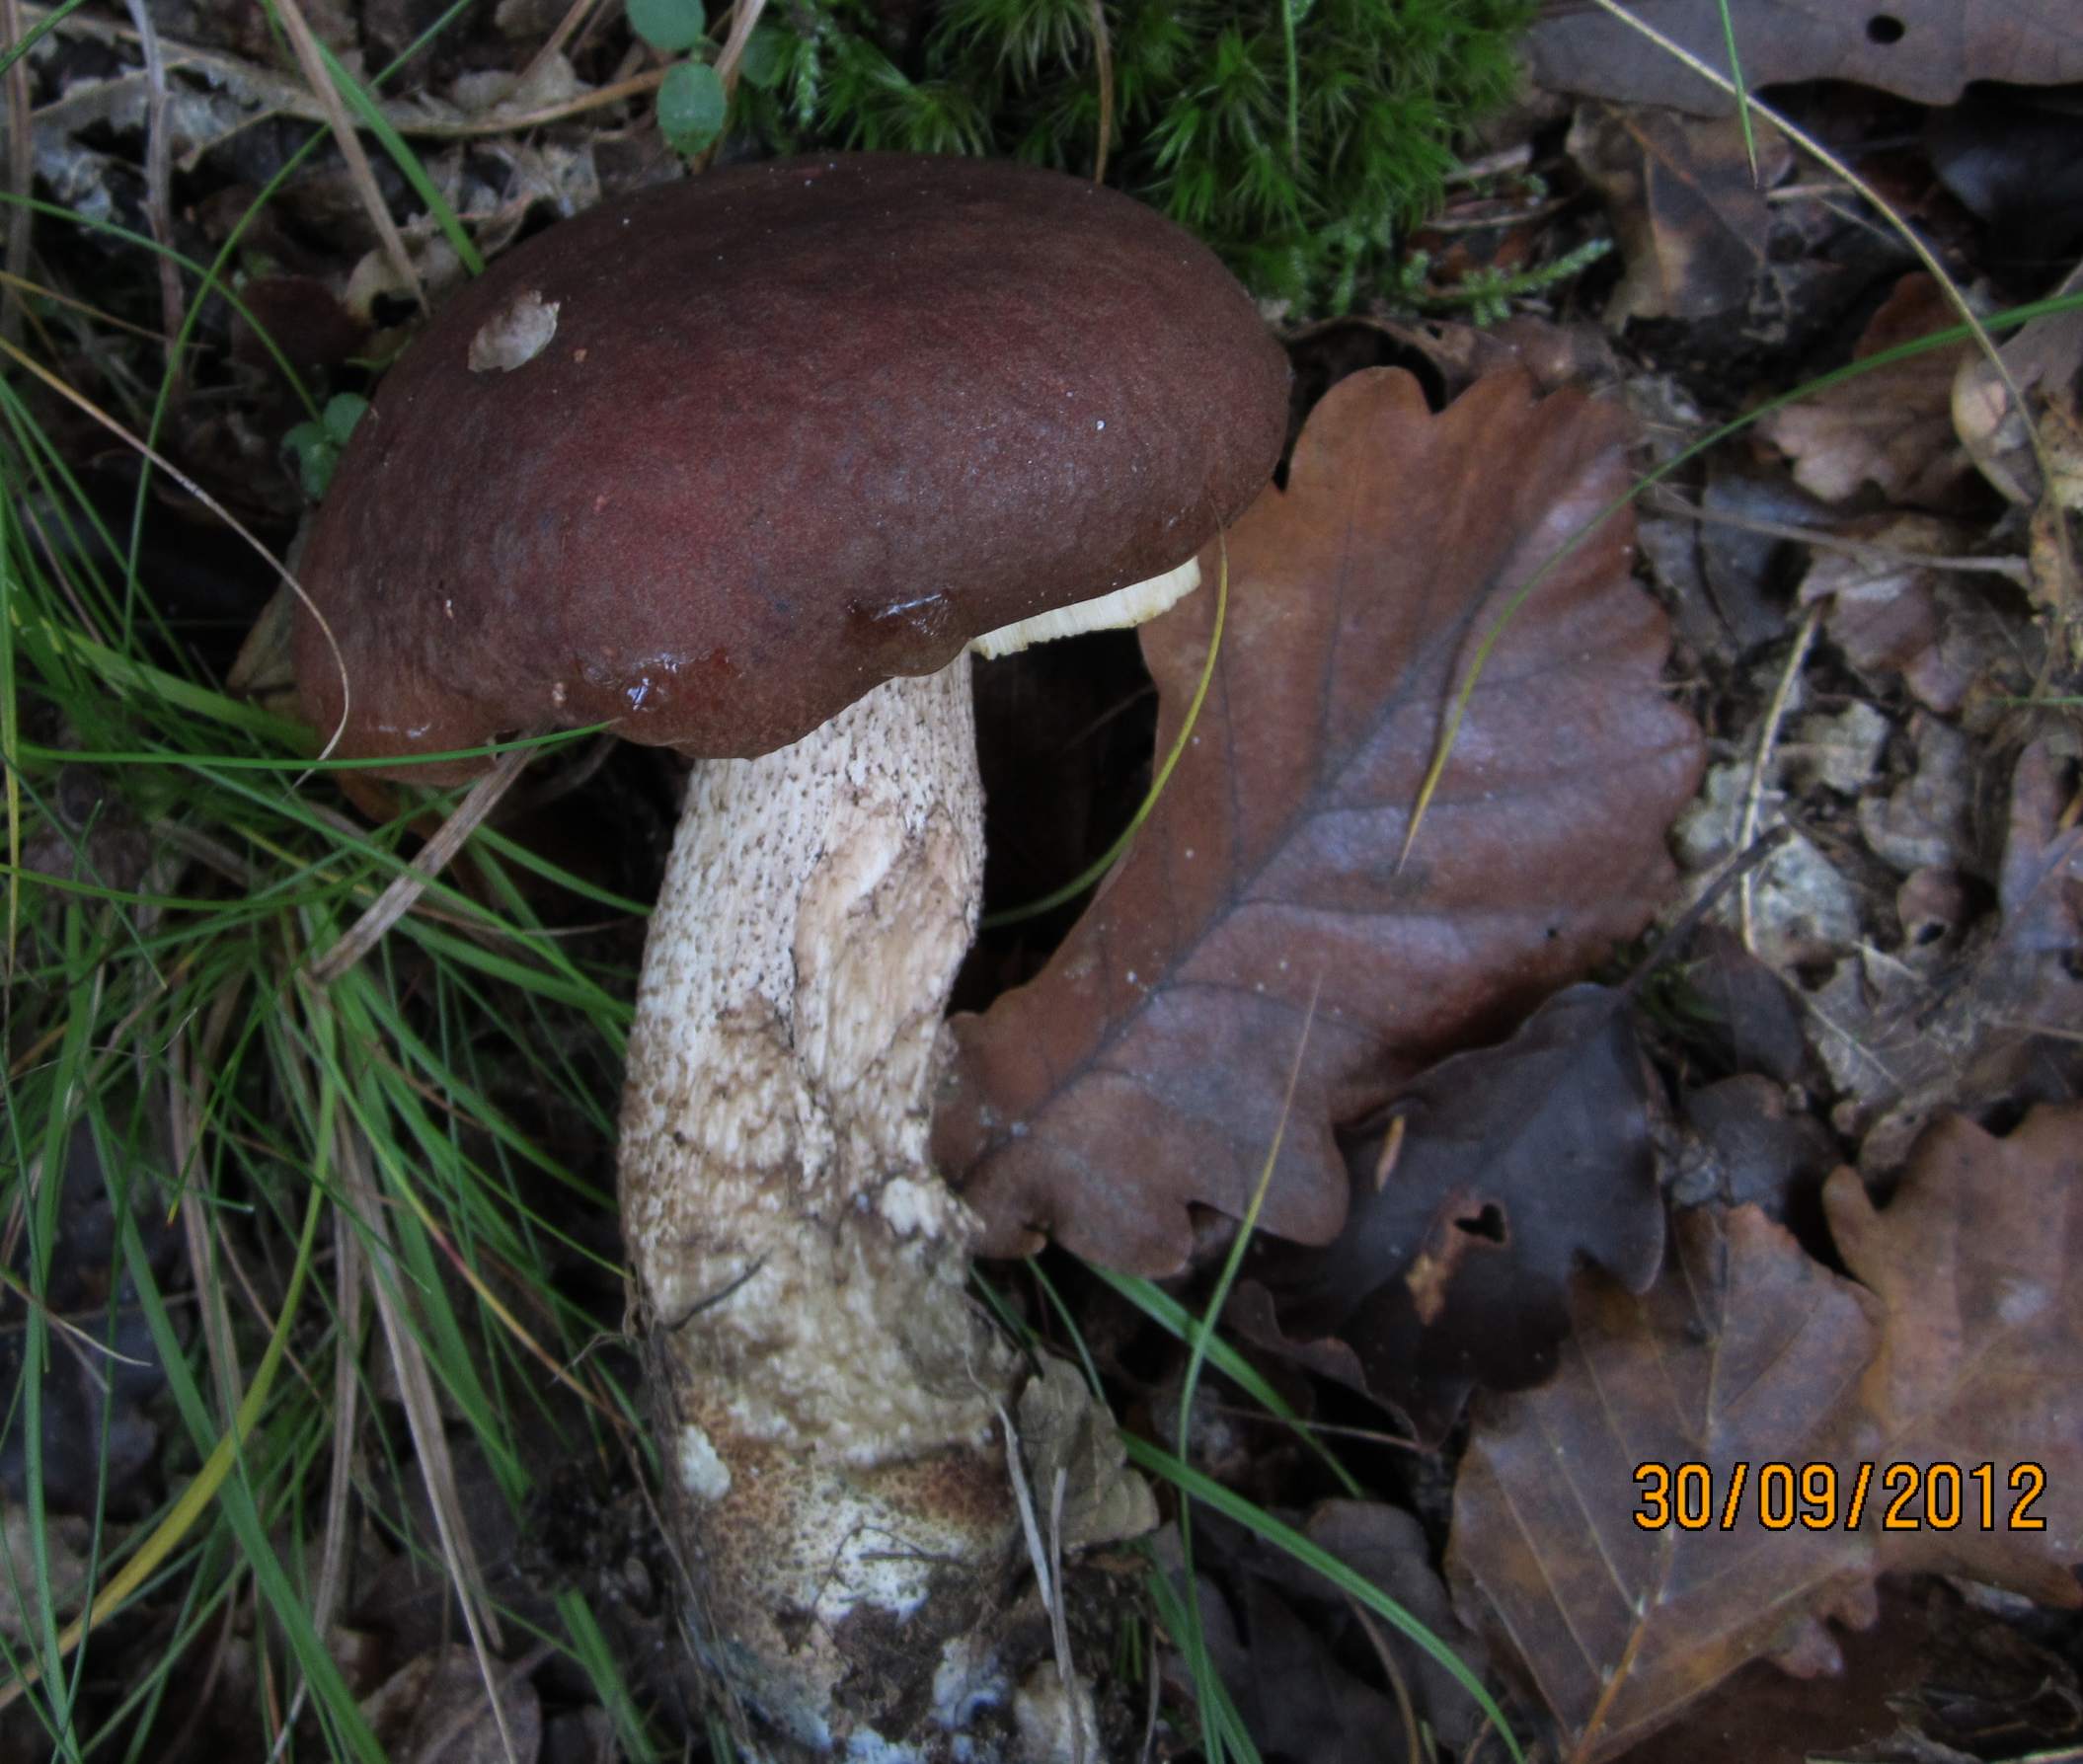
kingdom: Fungi
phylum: Basidiomycota
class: Agaricomycetes
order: Boletales
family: Boletaceae
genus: Leccinum
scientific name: Leccinum aurantiacum
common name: rustrød skælrørhat
